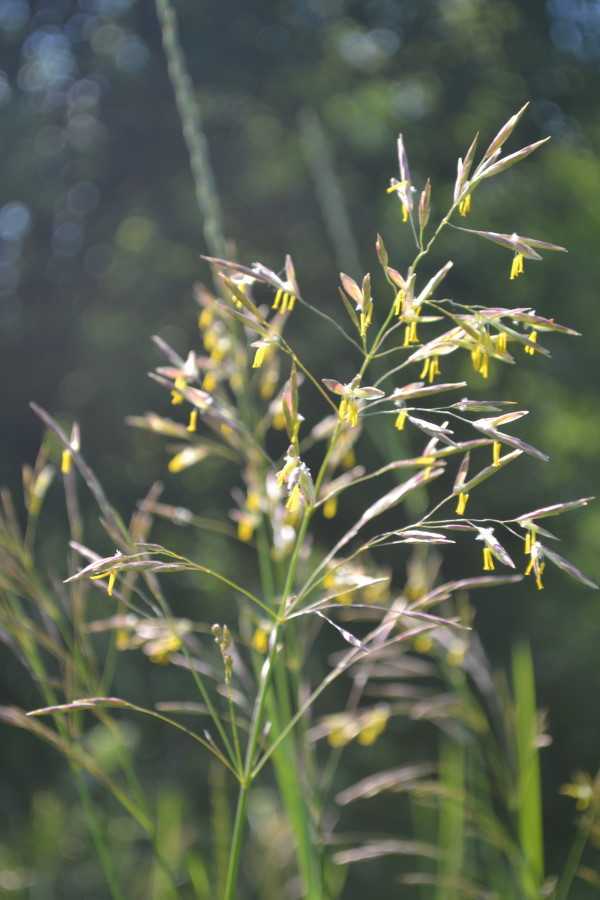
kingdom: Plantae
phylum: Tracheophyta
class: Liliopsida
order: Poales
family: Poaceae
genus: Bromus
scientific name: Bromus inermis
